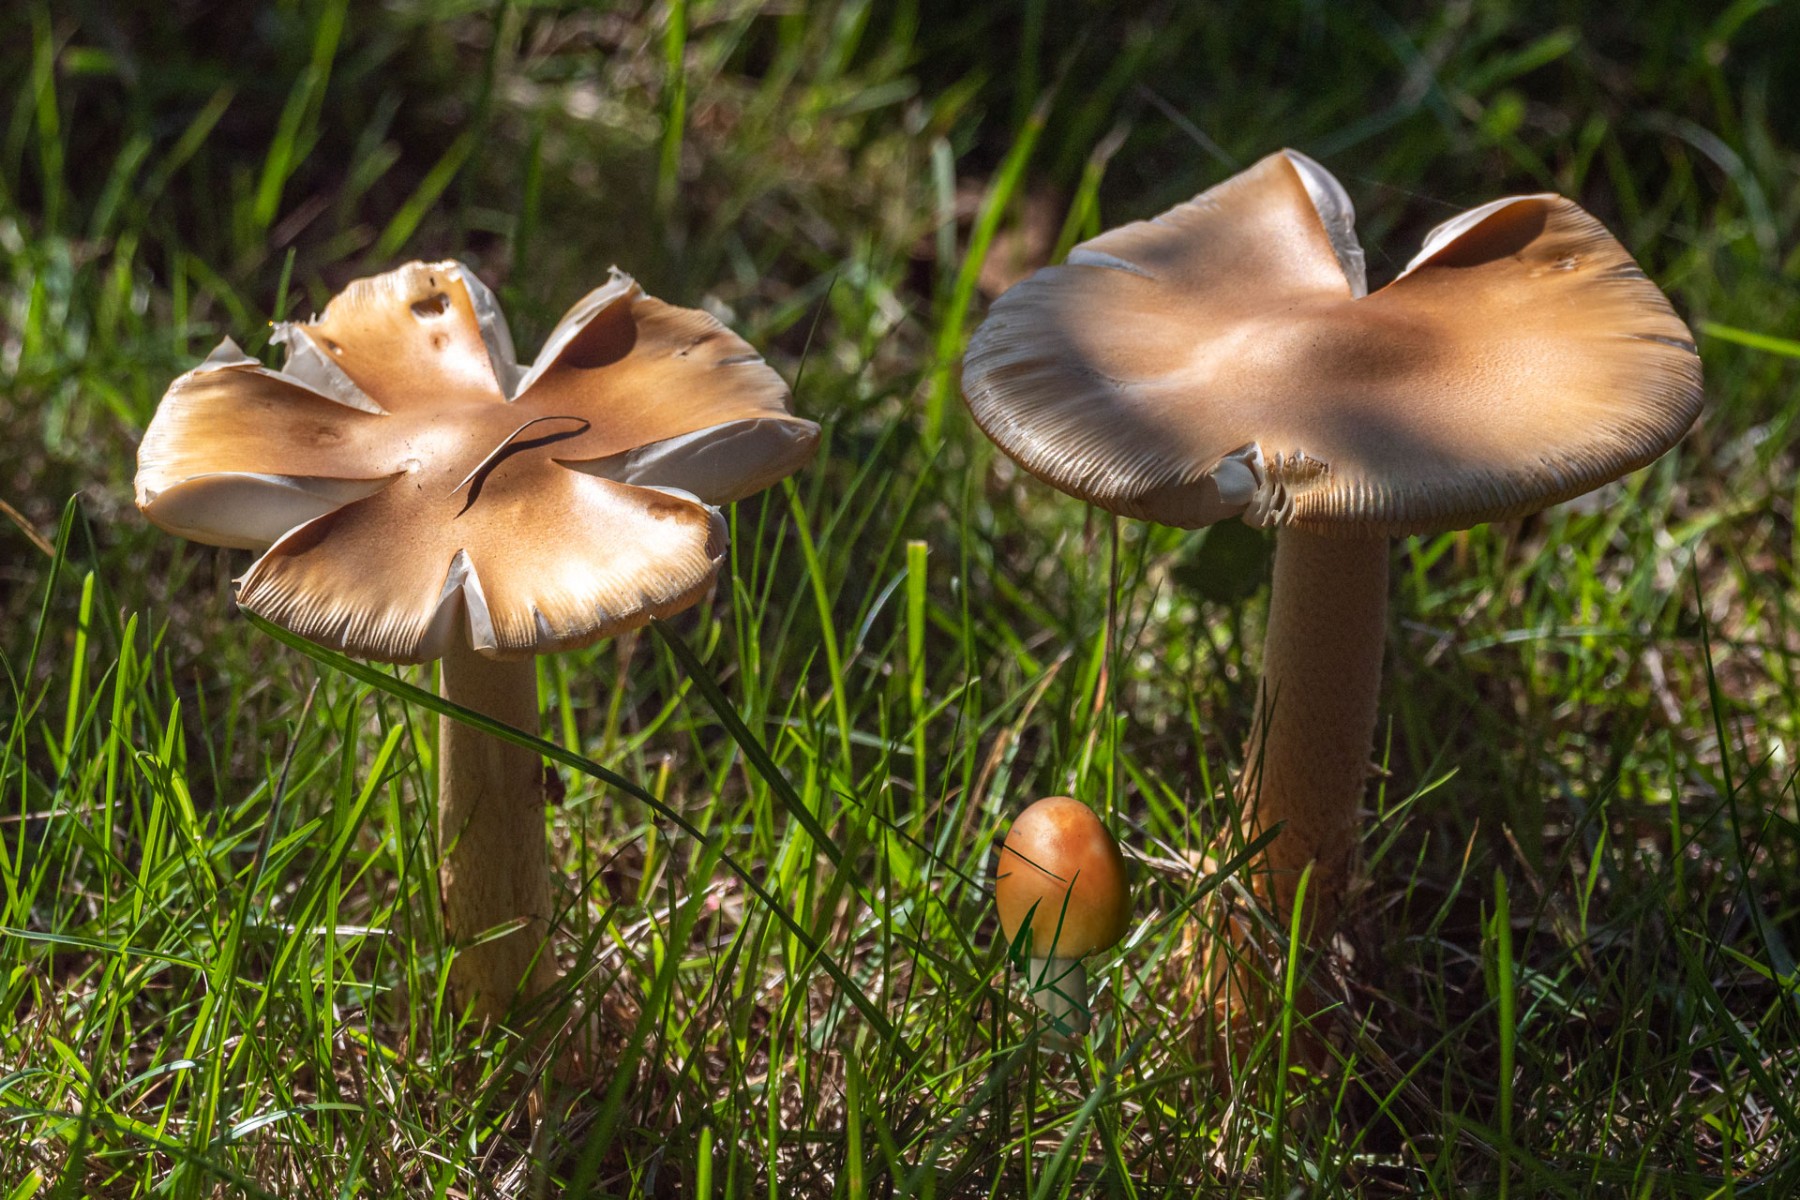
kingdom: Fungi
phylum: Basidiomycota
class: Agaricomycetes
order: Agaricales
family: Amanitaceae
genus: Amanita
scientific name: Amanita crocea
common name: gylden kam-fluesvamp
